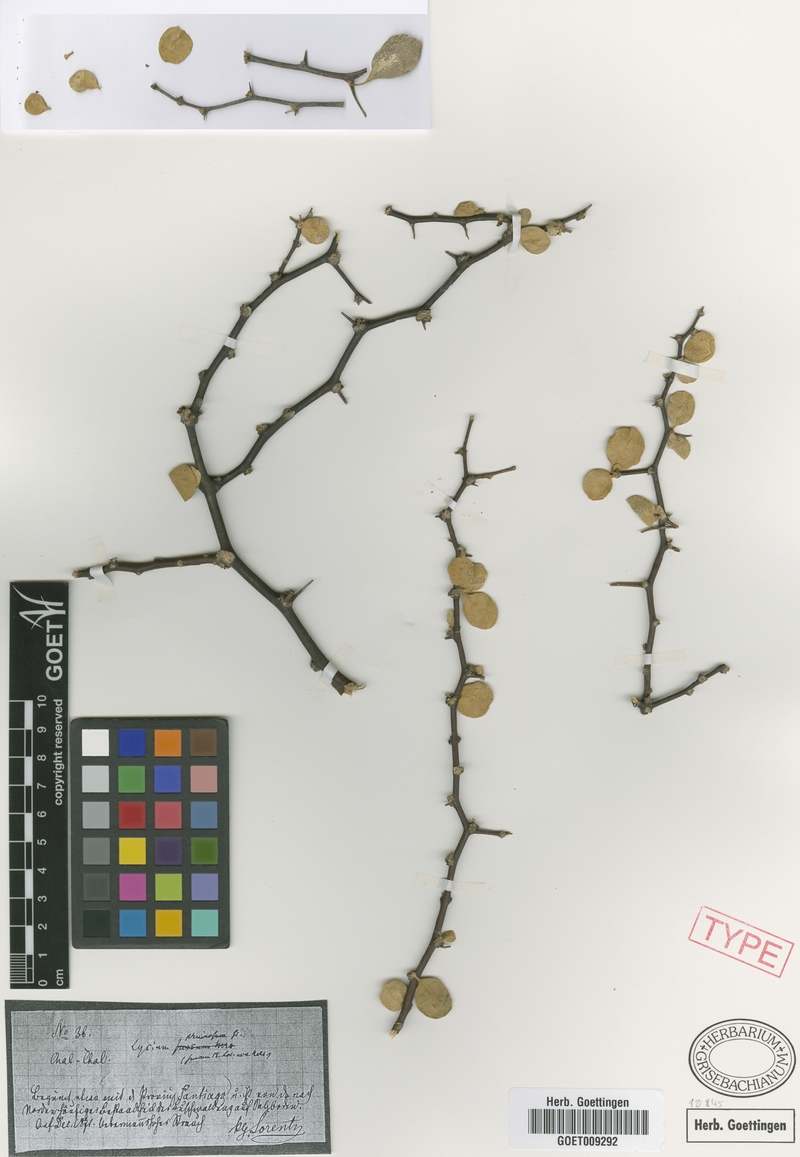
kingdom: Plantae
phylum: Tracheophyta
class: Magnoliopsida
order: Solanales
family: Solanaceae
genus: Lycium
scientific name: Lycium americanum
